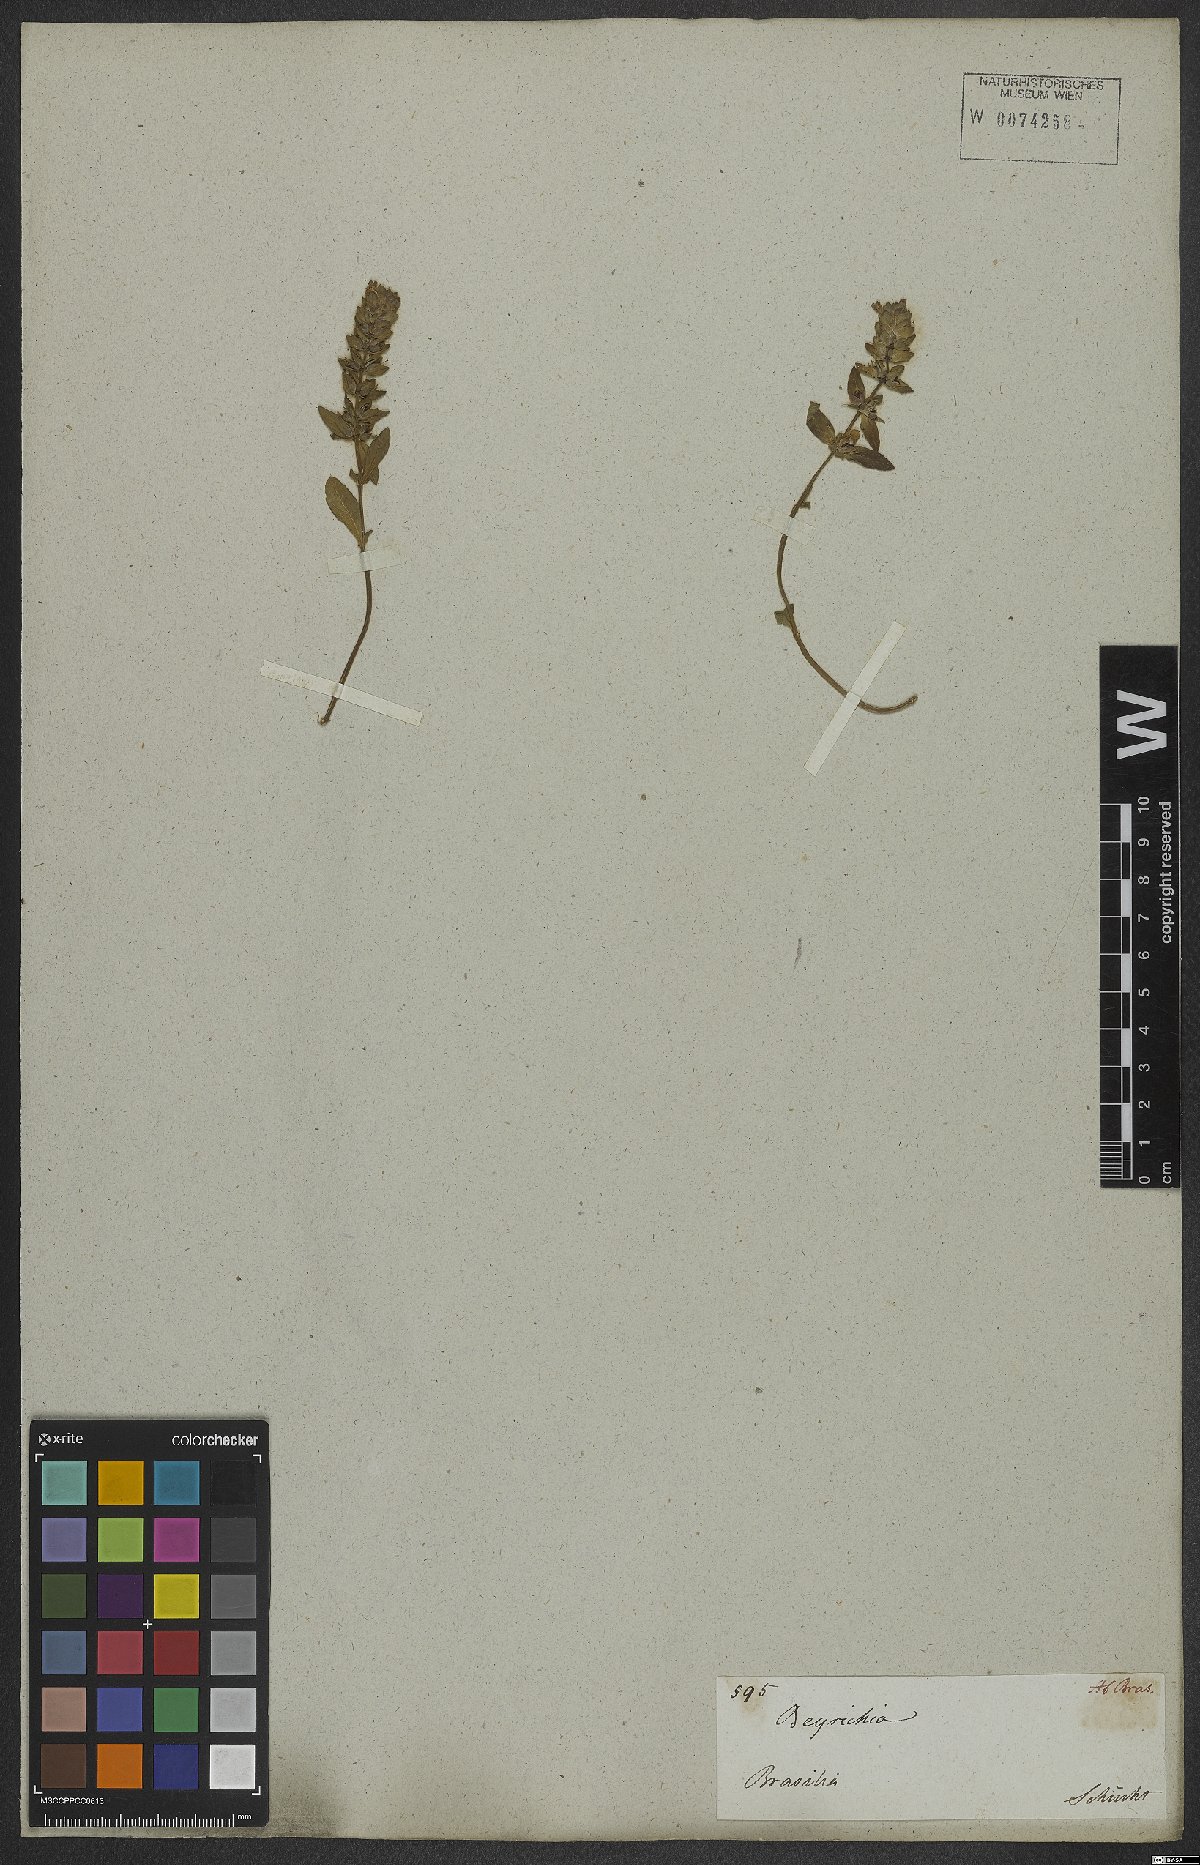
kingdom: Plantae
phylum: Tracheophyta
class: Magnoliopsida
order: Lamiales
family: Plantaginaceae
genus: Matourea
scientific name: Matourea
